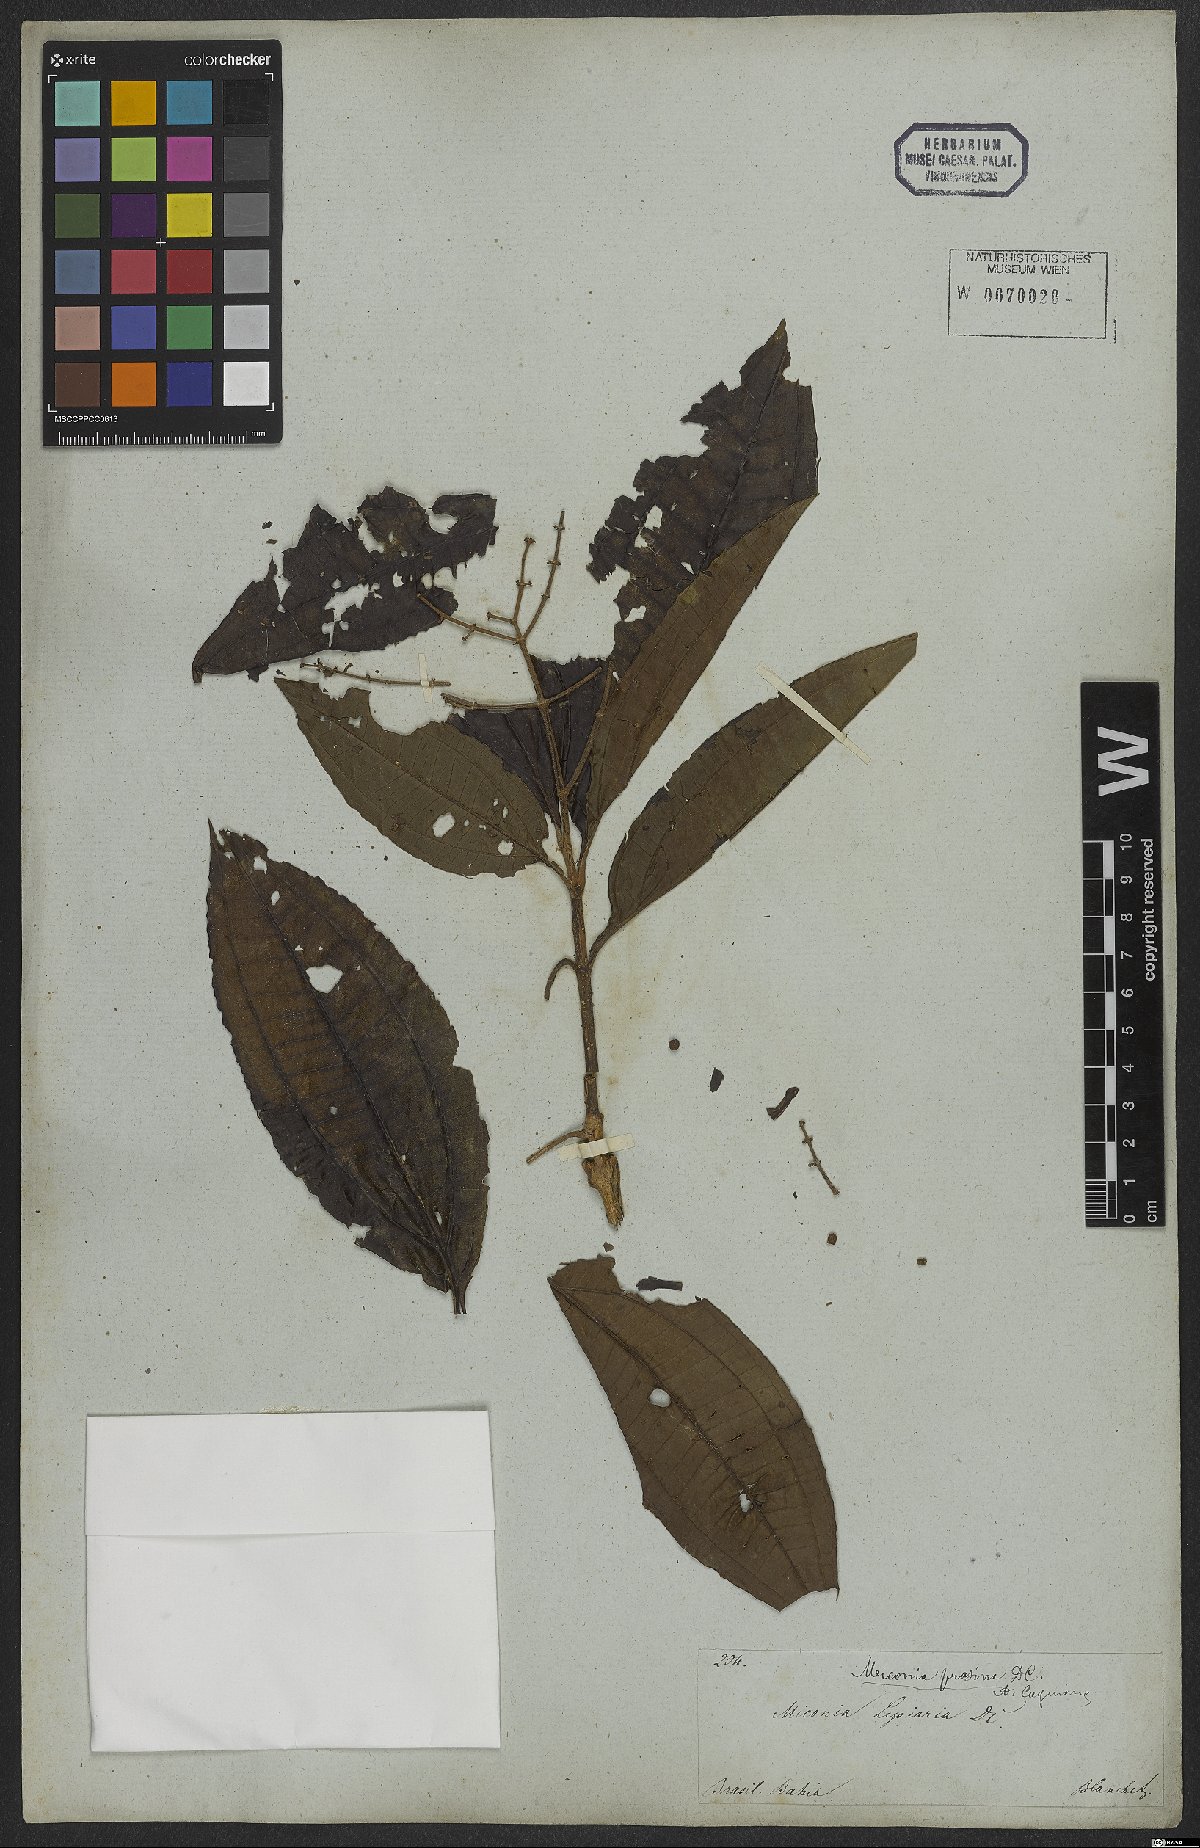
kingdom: Plantae
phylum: Tracheophyta
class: Magnoliopsida
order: Myrtales
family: Melastomataceae
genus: Miconia
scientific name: Miconia prasina
